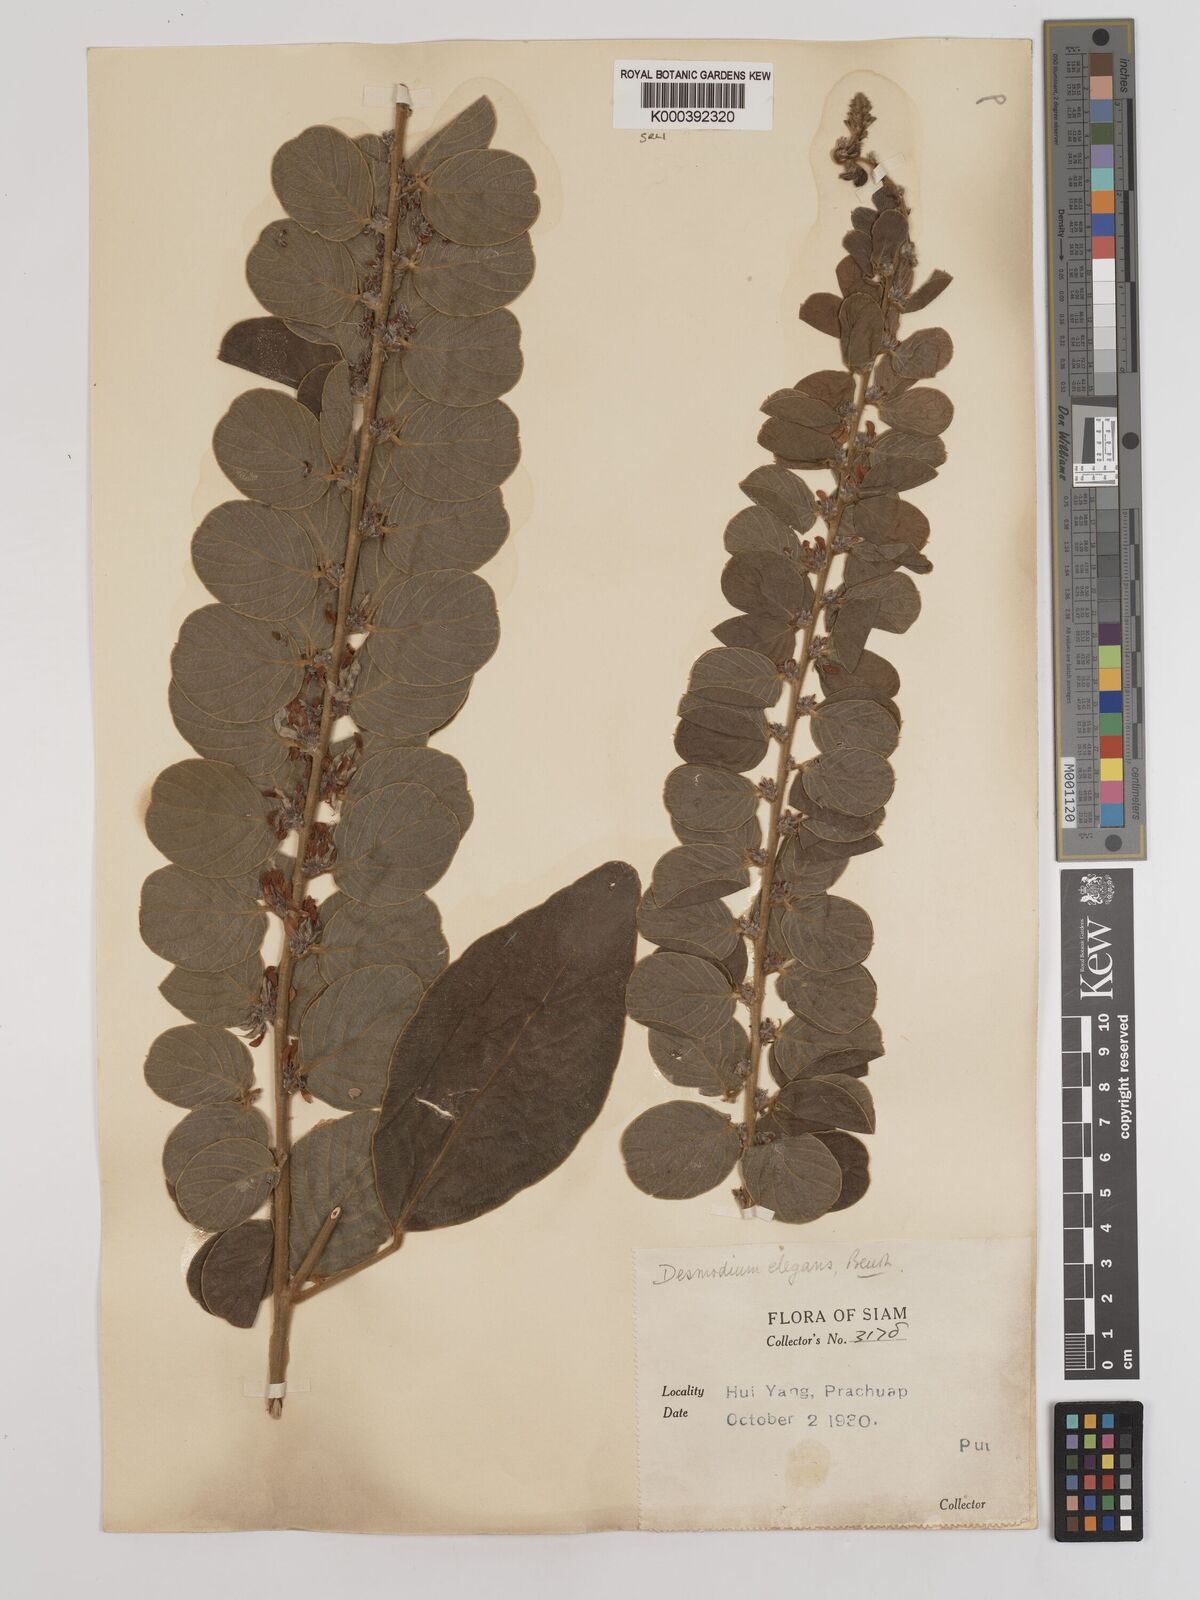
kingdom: Plantae
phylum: Tracheophyta
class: Magnoliopsida
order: Fabales
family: Fabaceae
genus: Phyllodium
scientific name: Phyllodium elegans
